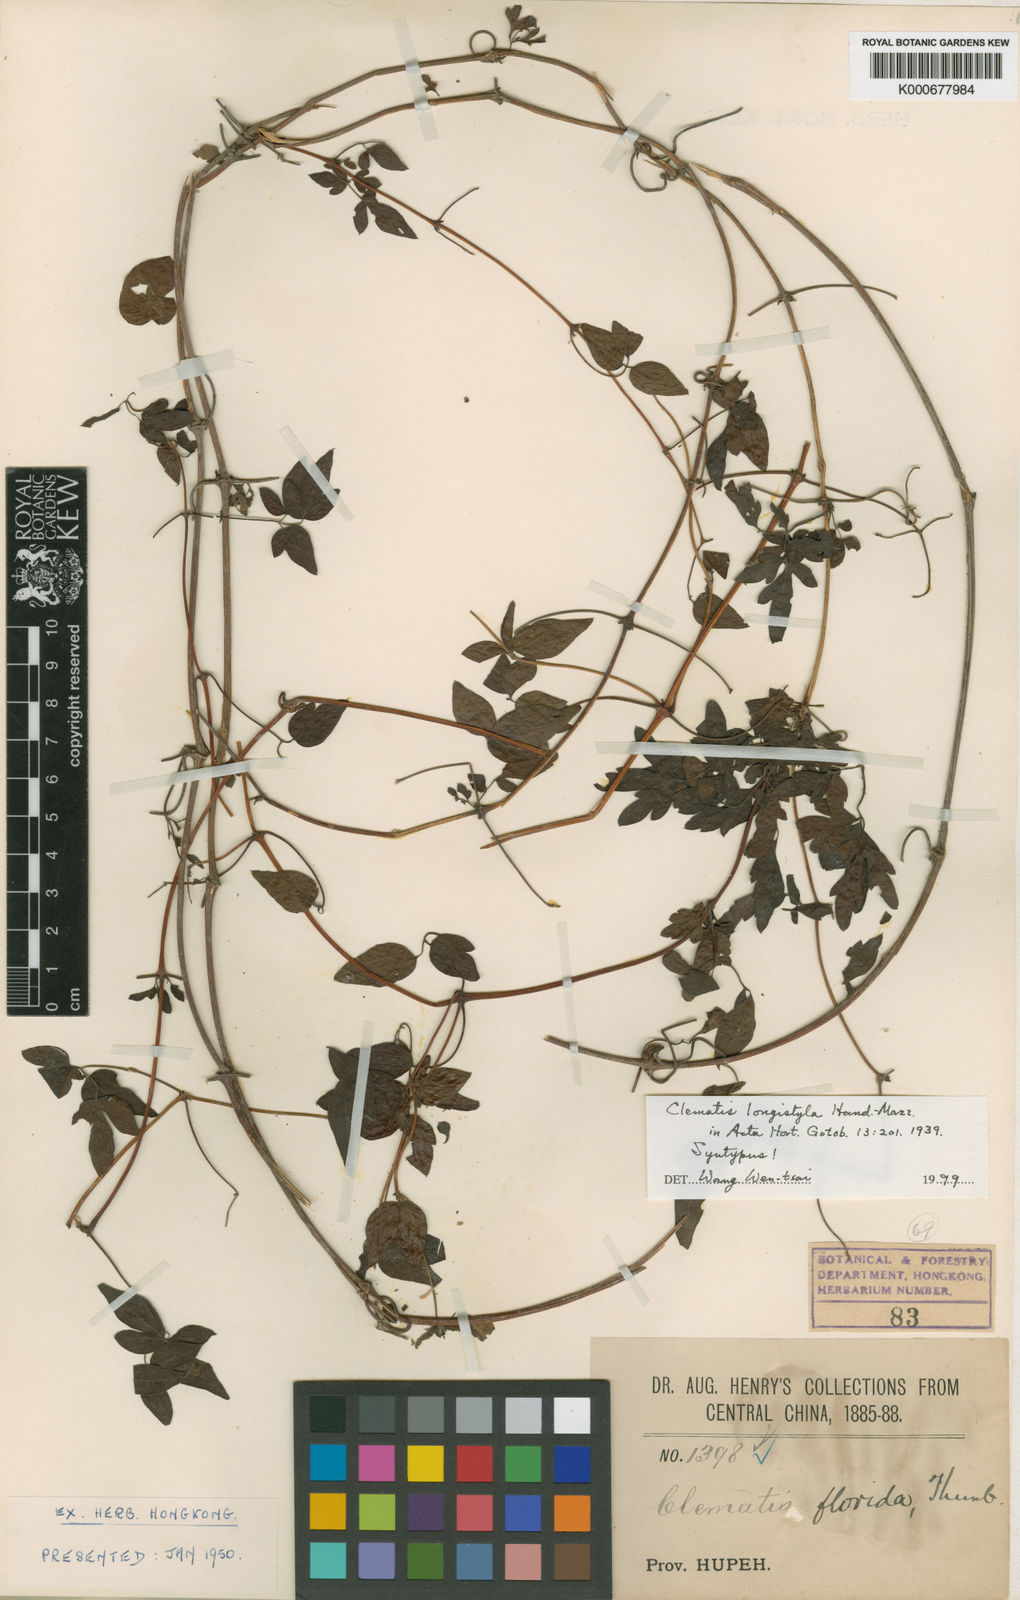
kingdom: Plantae
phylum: Tracheophyta
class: Magnoliopsida
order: Ranunculales
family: Ranunculaceae
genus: Clematis
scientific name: Clematis longistyla
